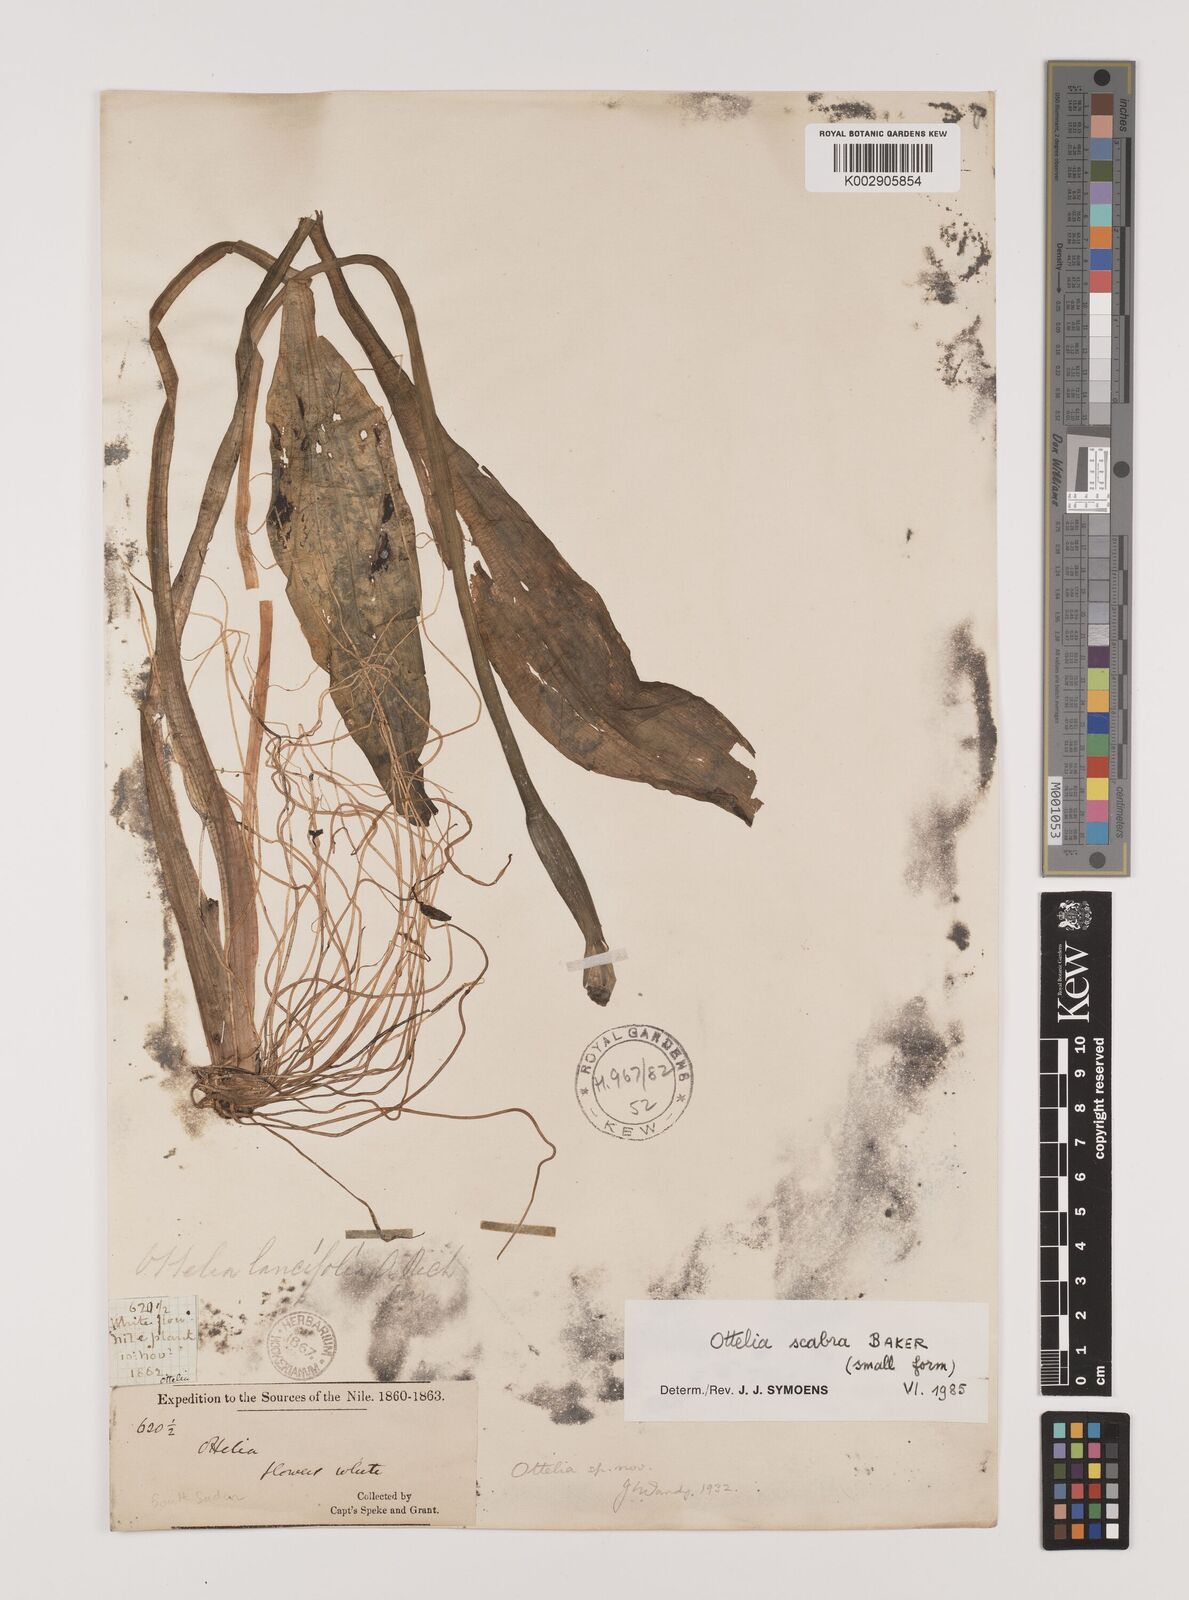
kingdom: Plantae
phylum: Tracheophyta
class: Liliopsida
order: Alismatales
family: Hydrocharitaceae
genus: Ottelia
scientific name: Ottelia scabra
